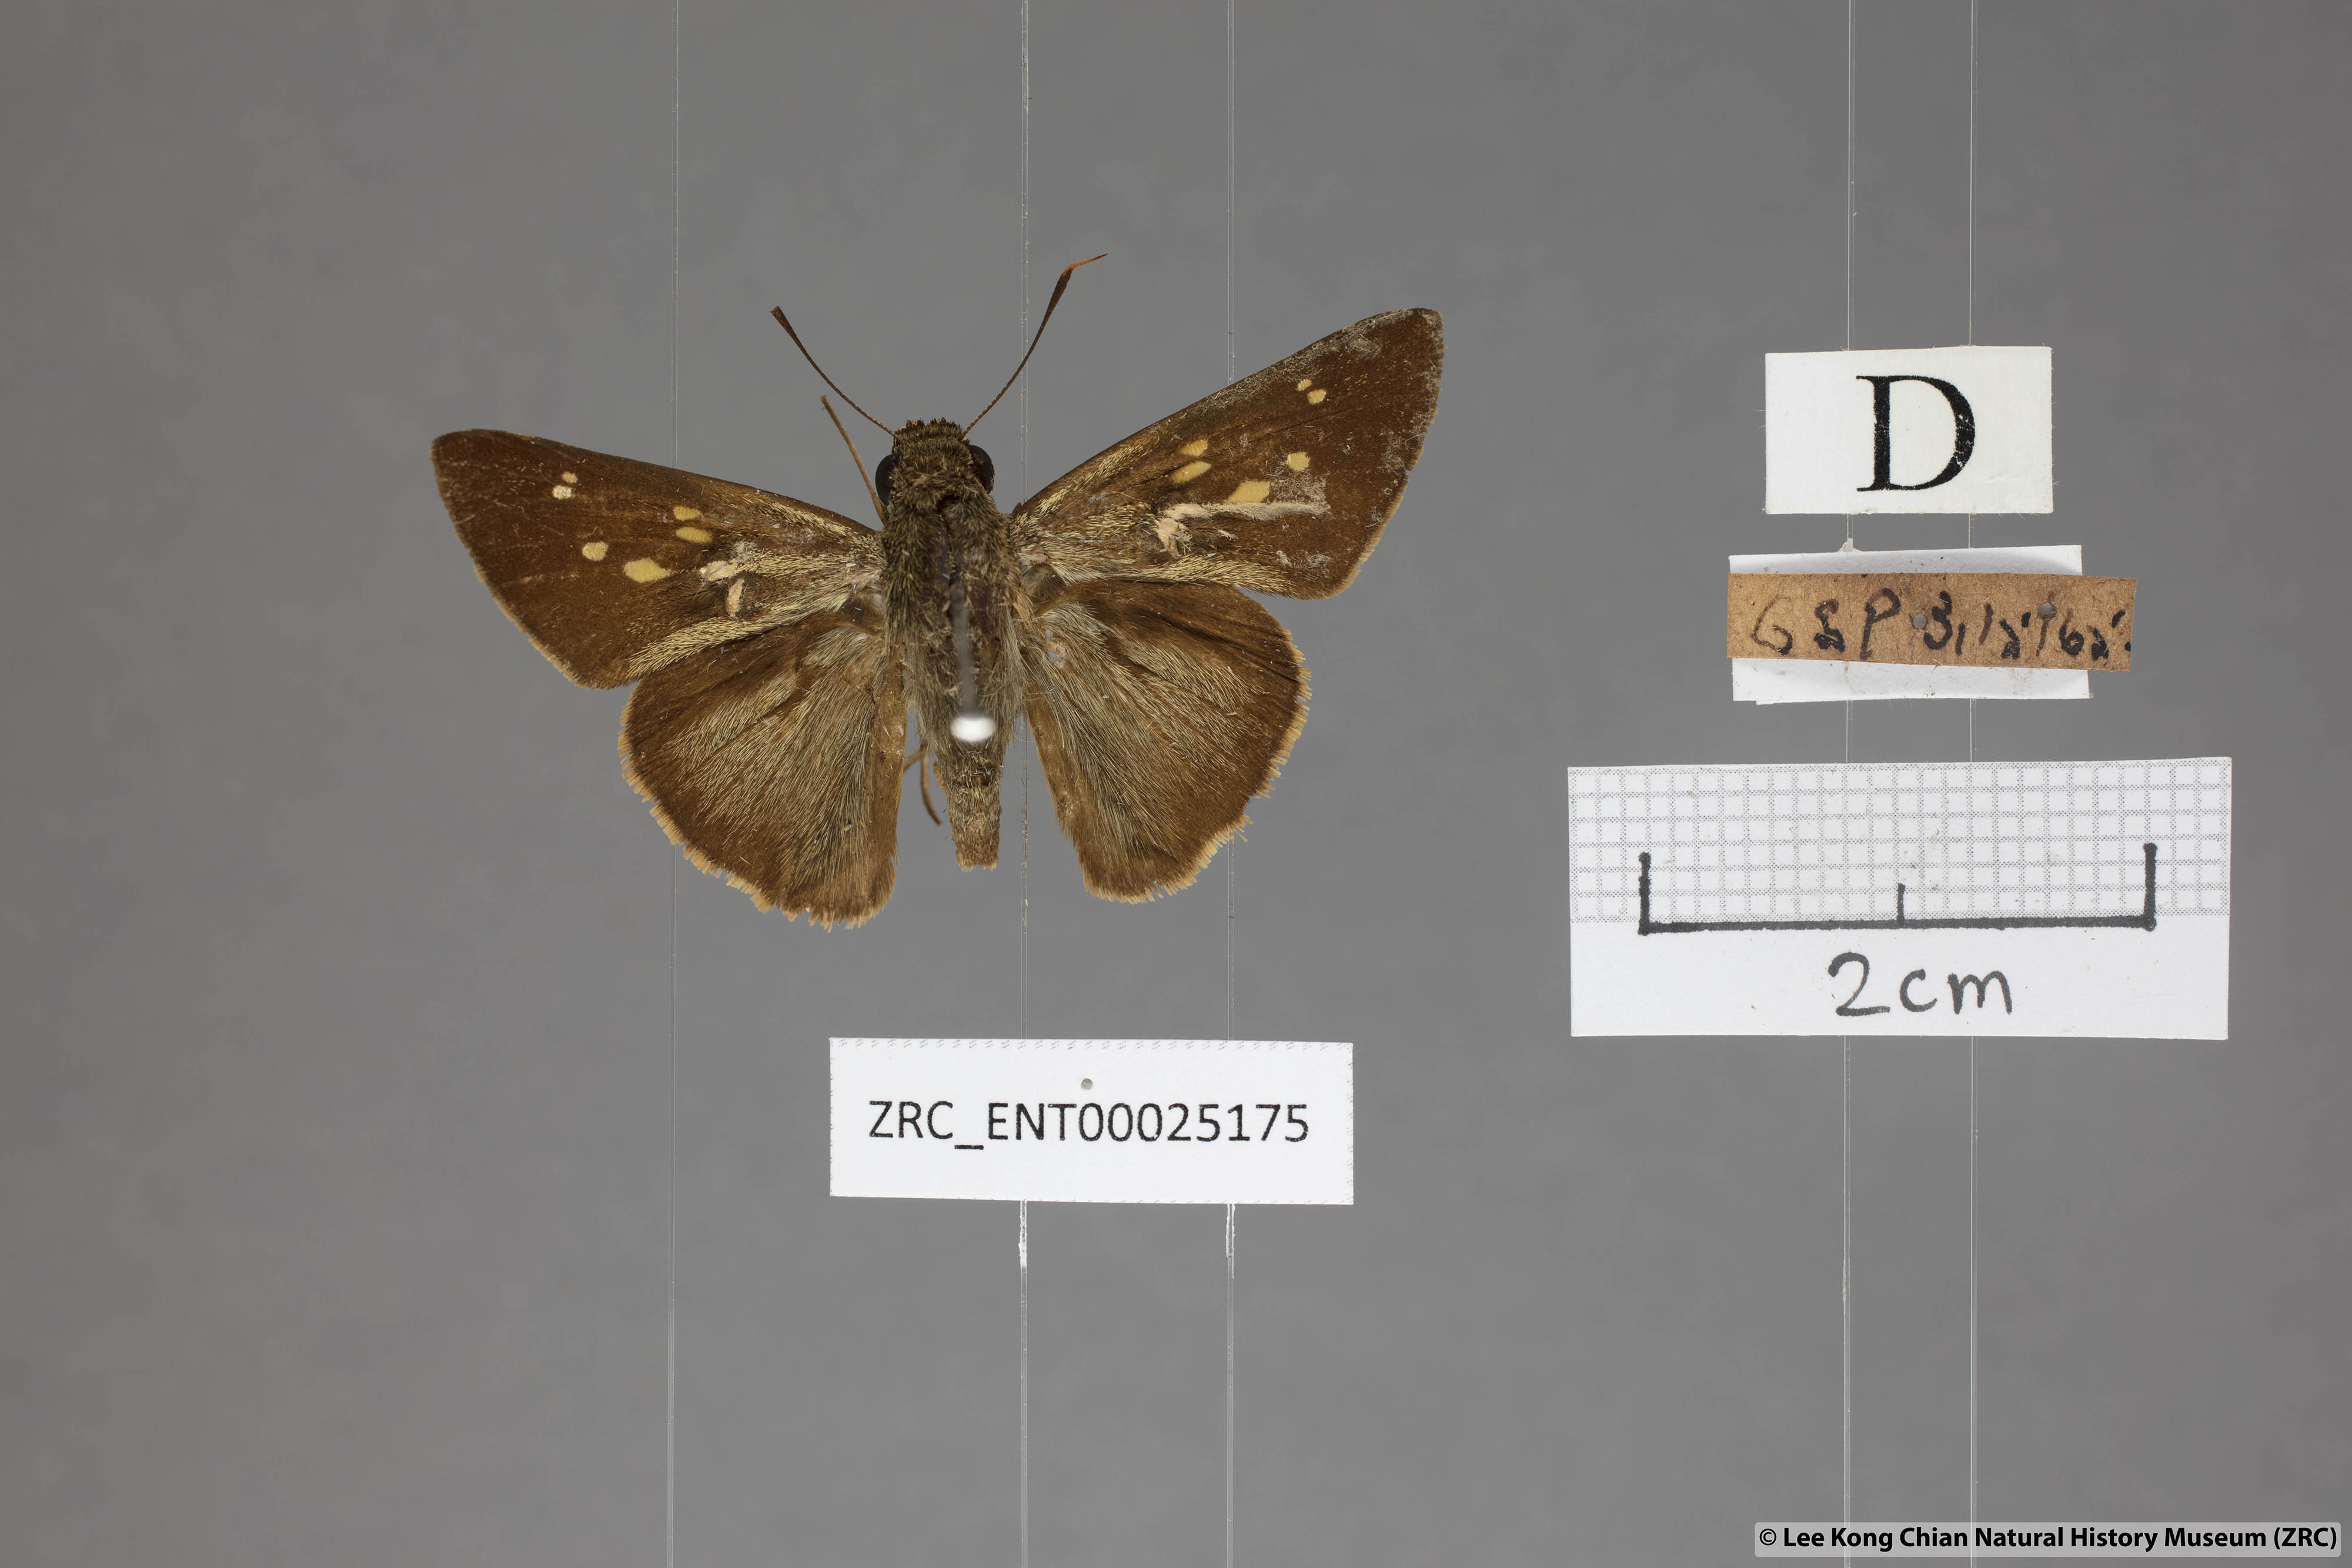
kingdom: Animalia
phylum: Arthropoda
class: Insecta
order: Lepidoptera
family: Hesperiidae
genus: Pithauria
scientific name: Pithauria marsena
